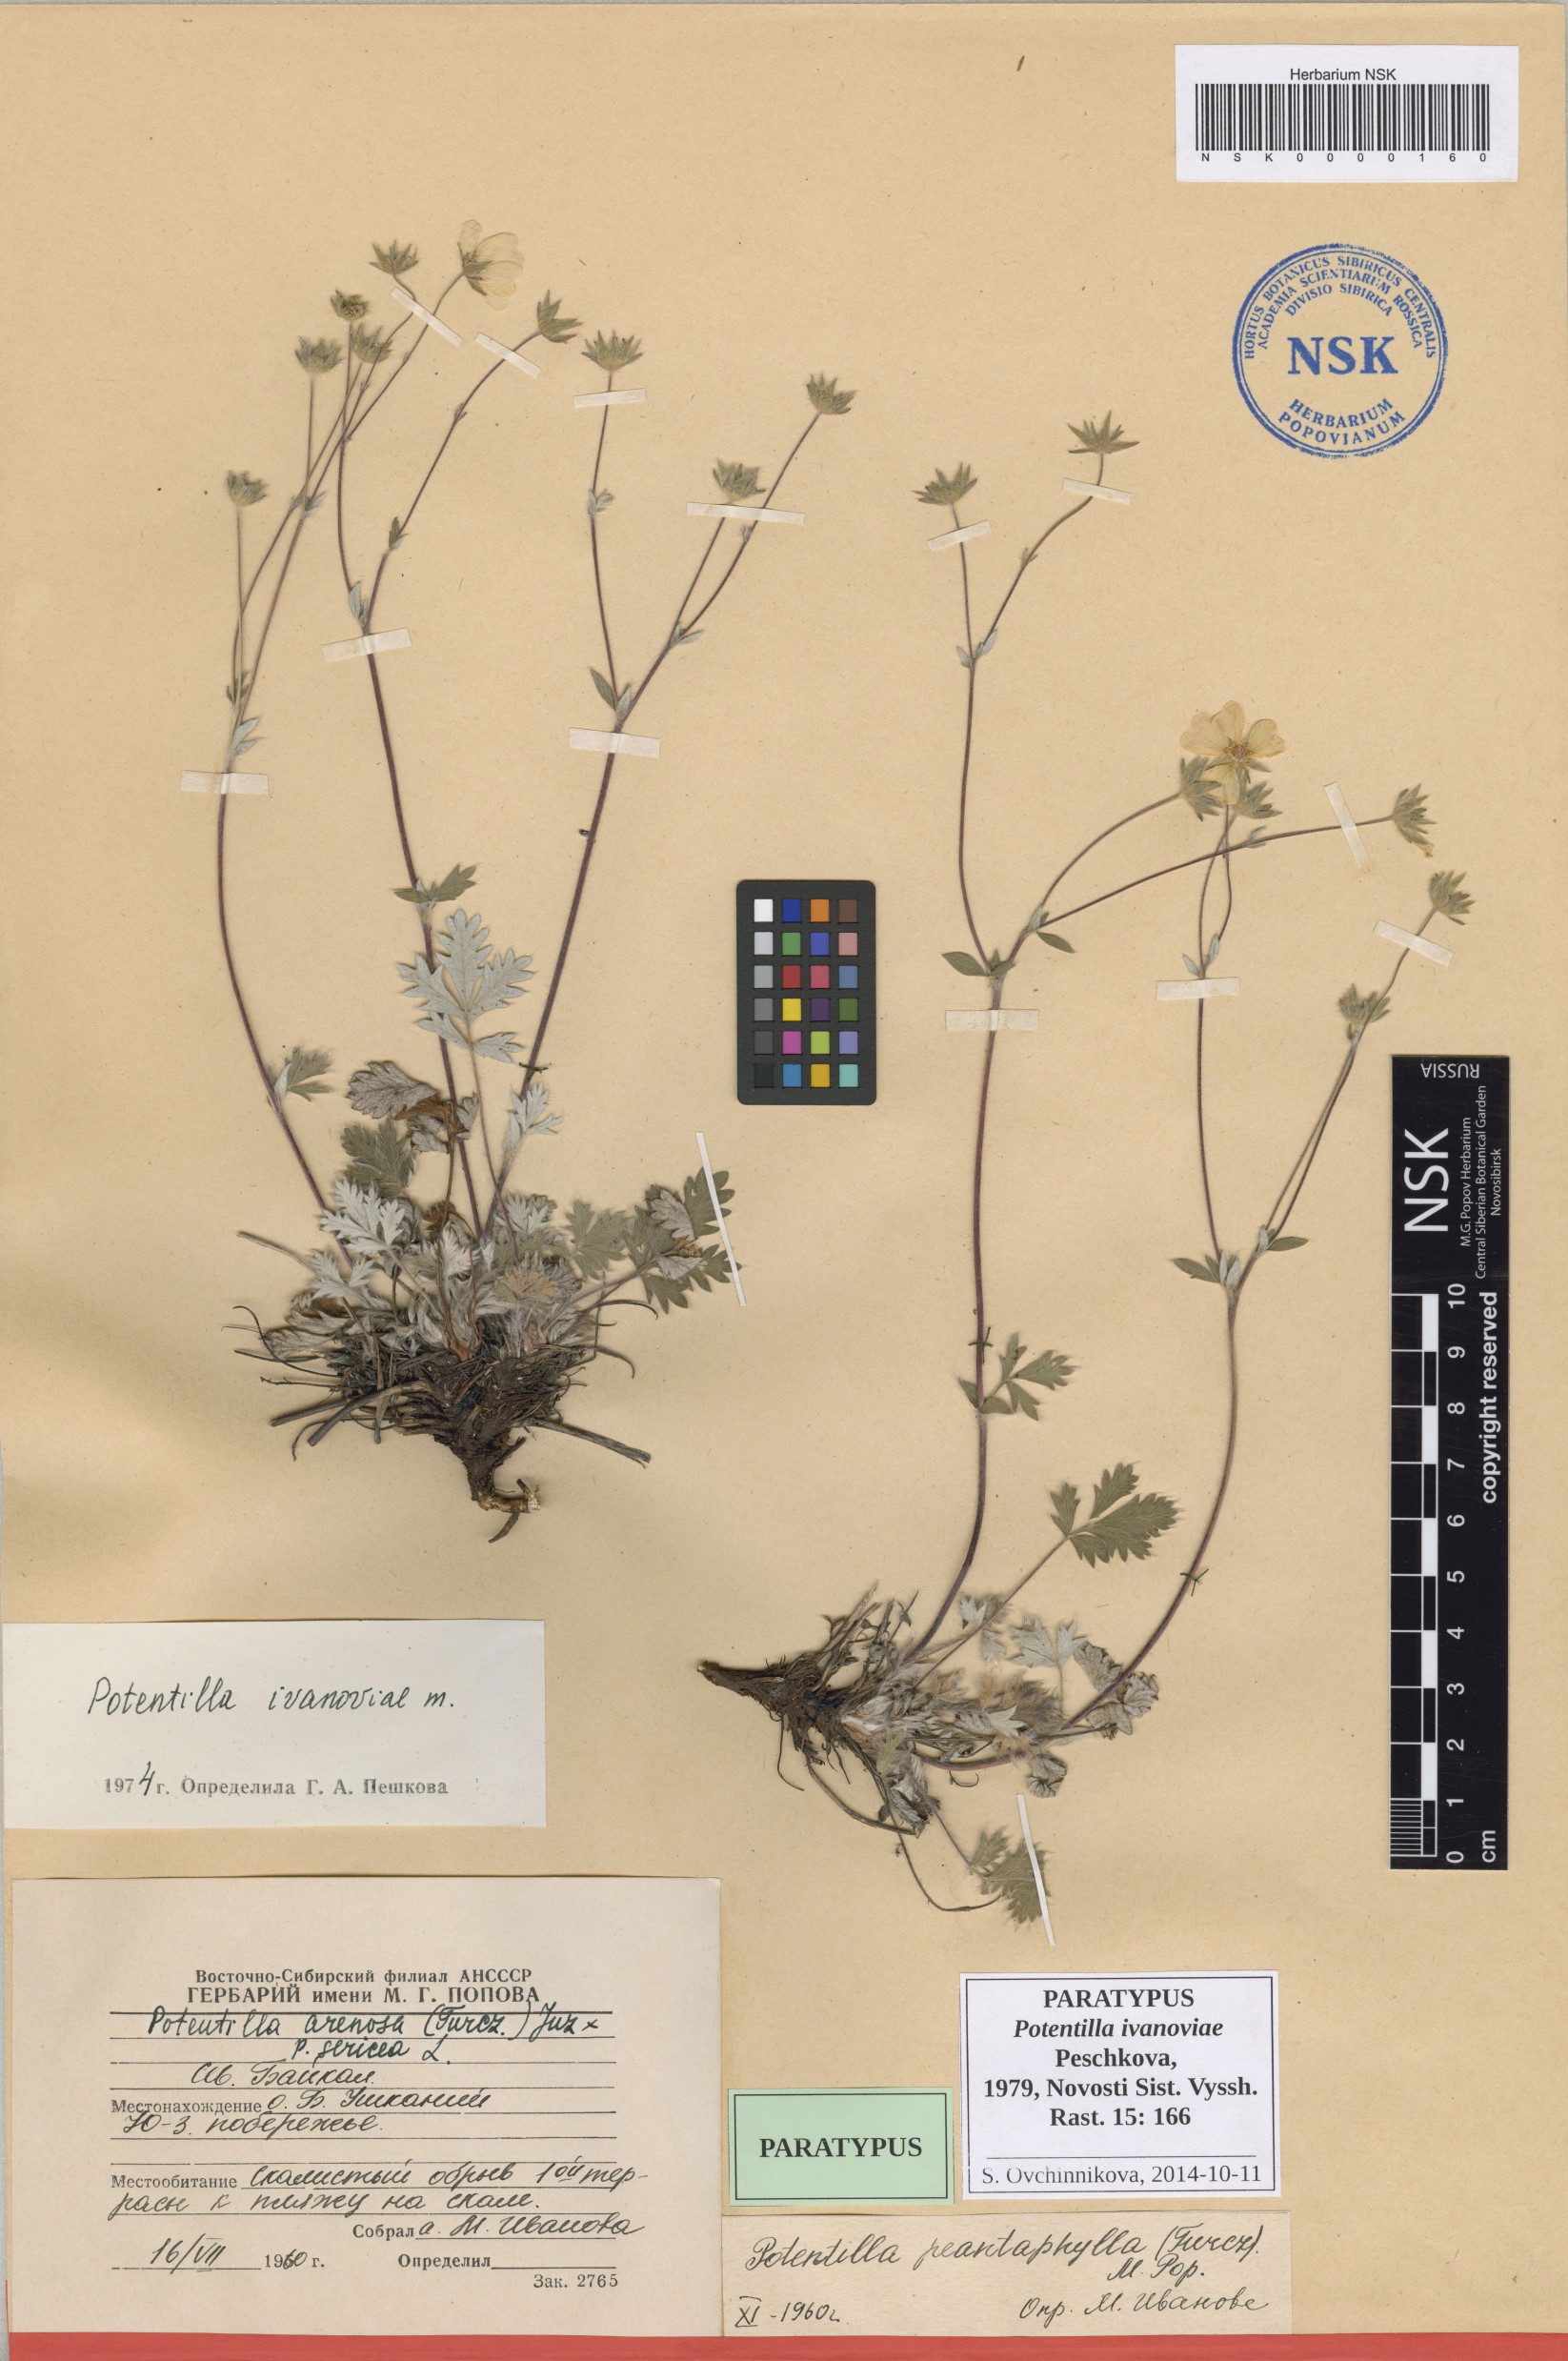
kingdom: Plantae
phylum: Tracheophyta
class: Magnoliopsida
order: Rosales
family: Rosaceae
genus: Potentilla
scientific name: Potentilla ivanoviae
